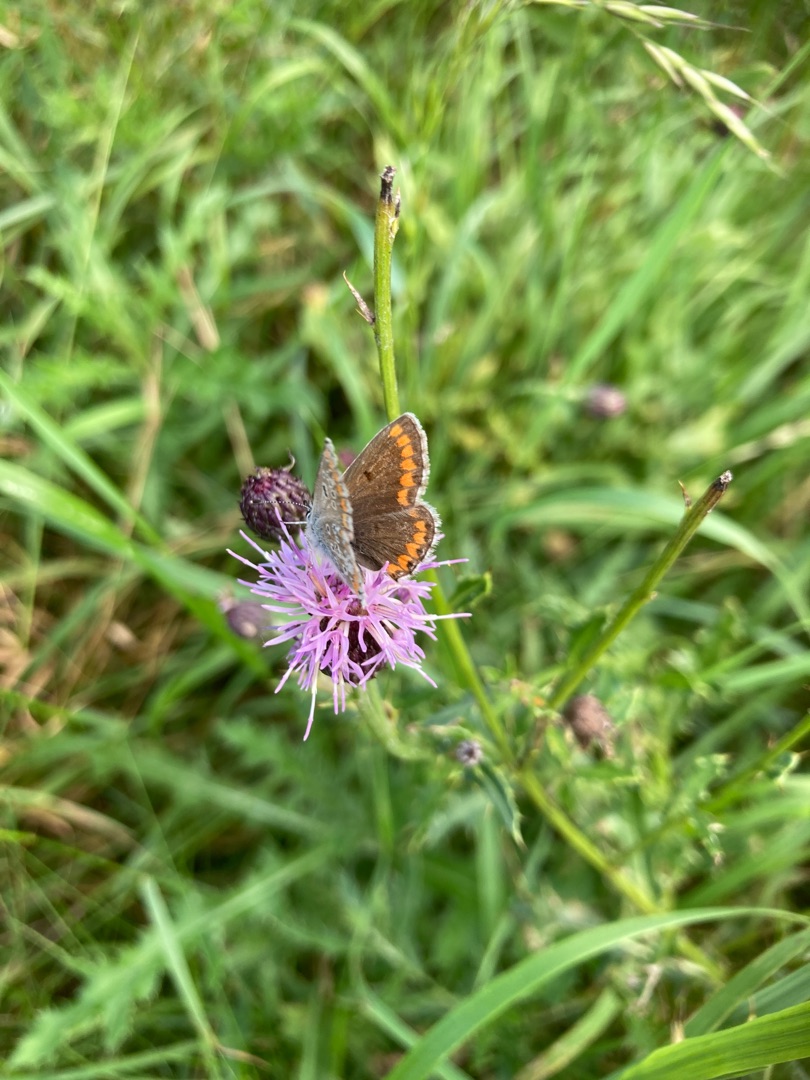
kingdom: Animalia
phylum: Arthropoda
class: Insecta
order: Lepidoptera
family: Lycaenidae
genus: Aricia
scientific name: Aricia agestis
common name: Rødplettet blåfugl
